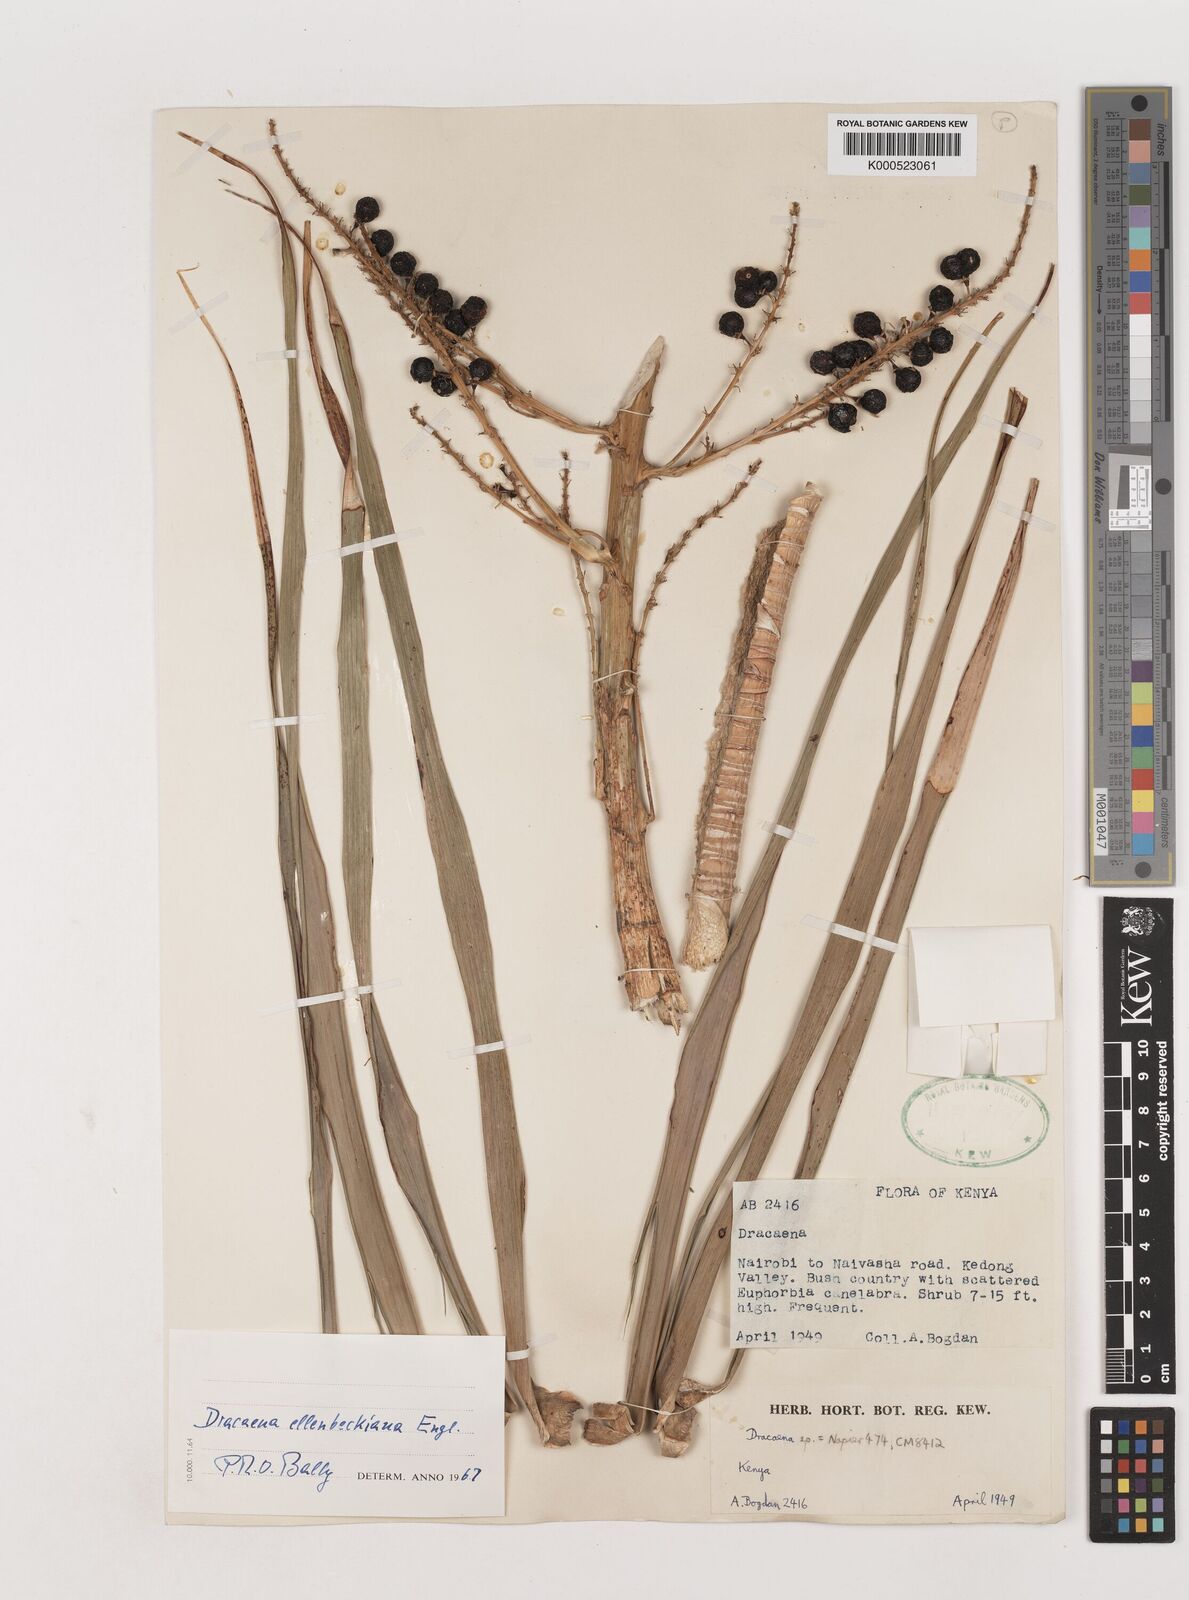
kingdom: Plantae
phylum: Tracheophyta
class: Liliopsida
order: Asparagales
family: Asparagaceae
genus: Dracaena
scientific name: Dracaena ellenbeckiana
